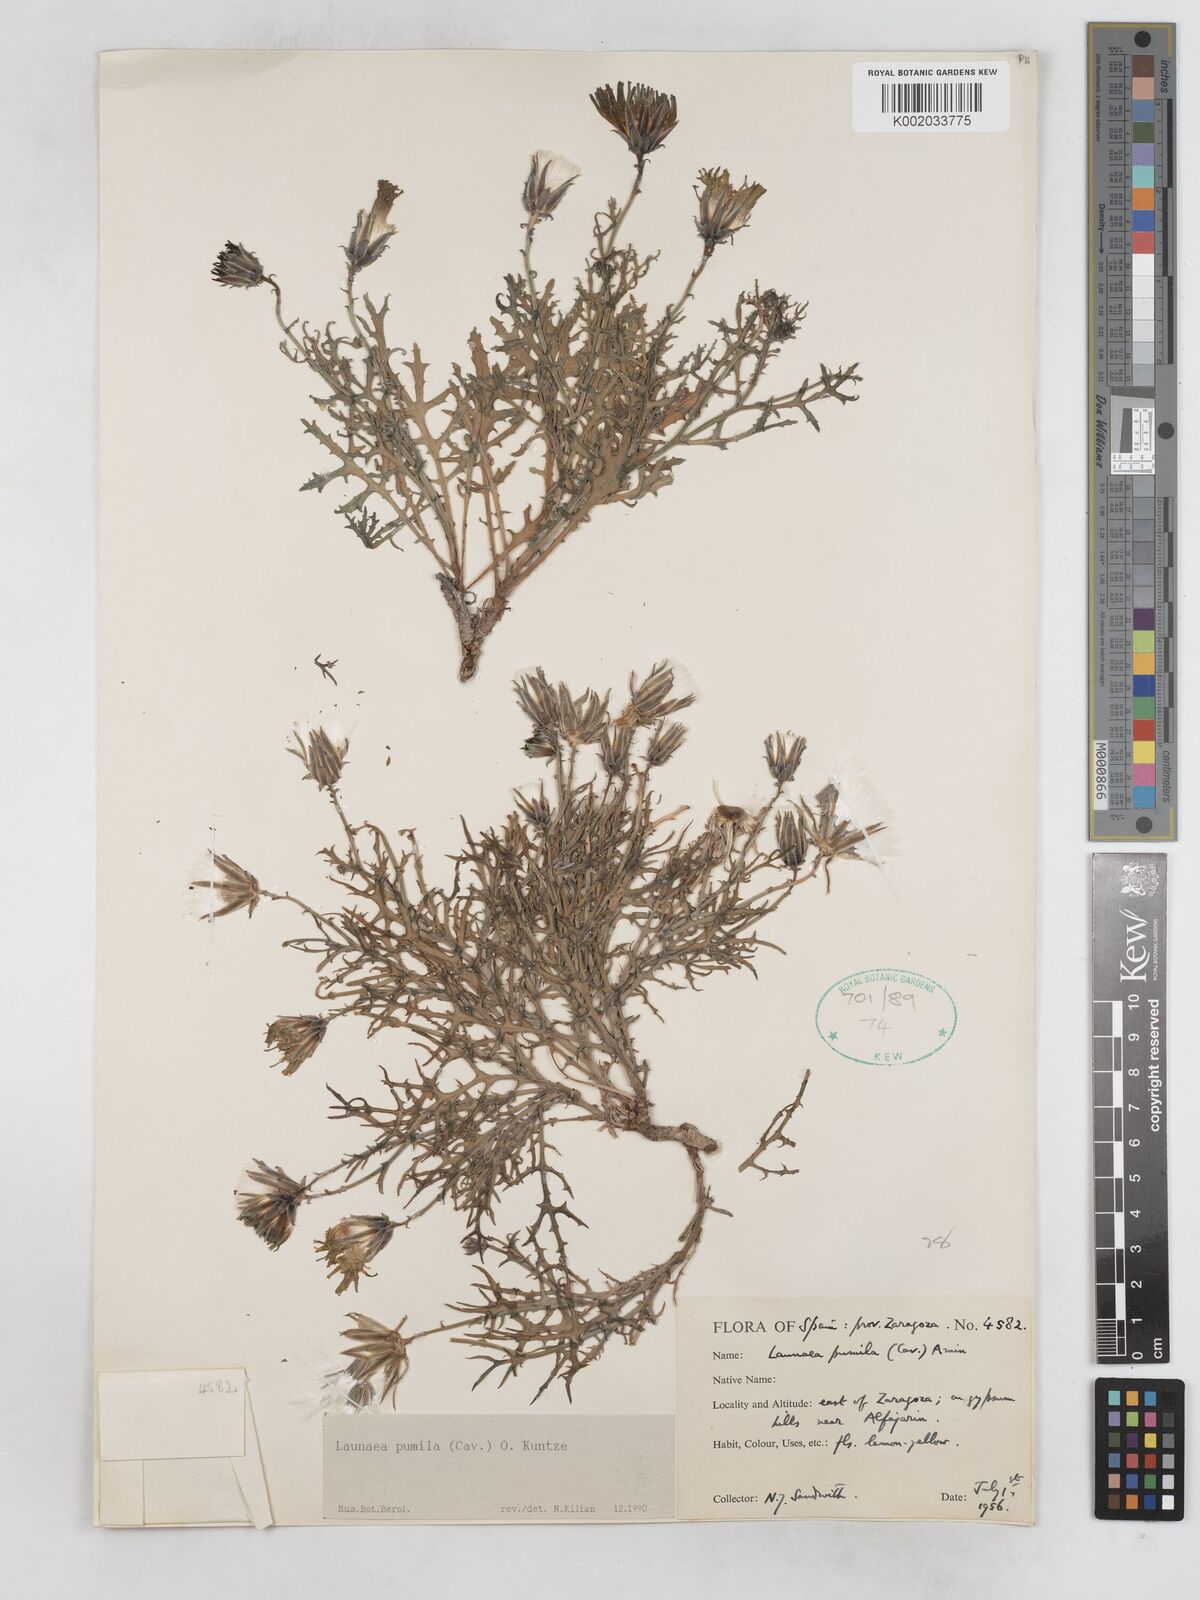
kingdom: Plantae
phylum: Tracheophyta
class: Magnoliopsida
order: Asterales
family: Asteraceae
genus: Launaea
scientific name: Launaea pumila
